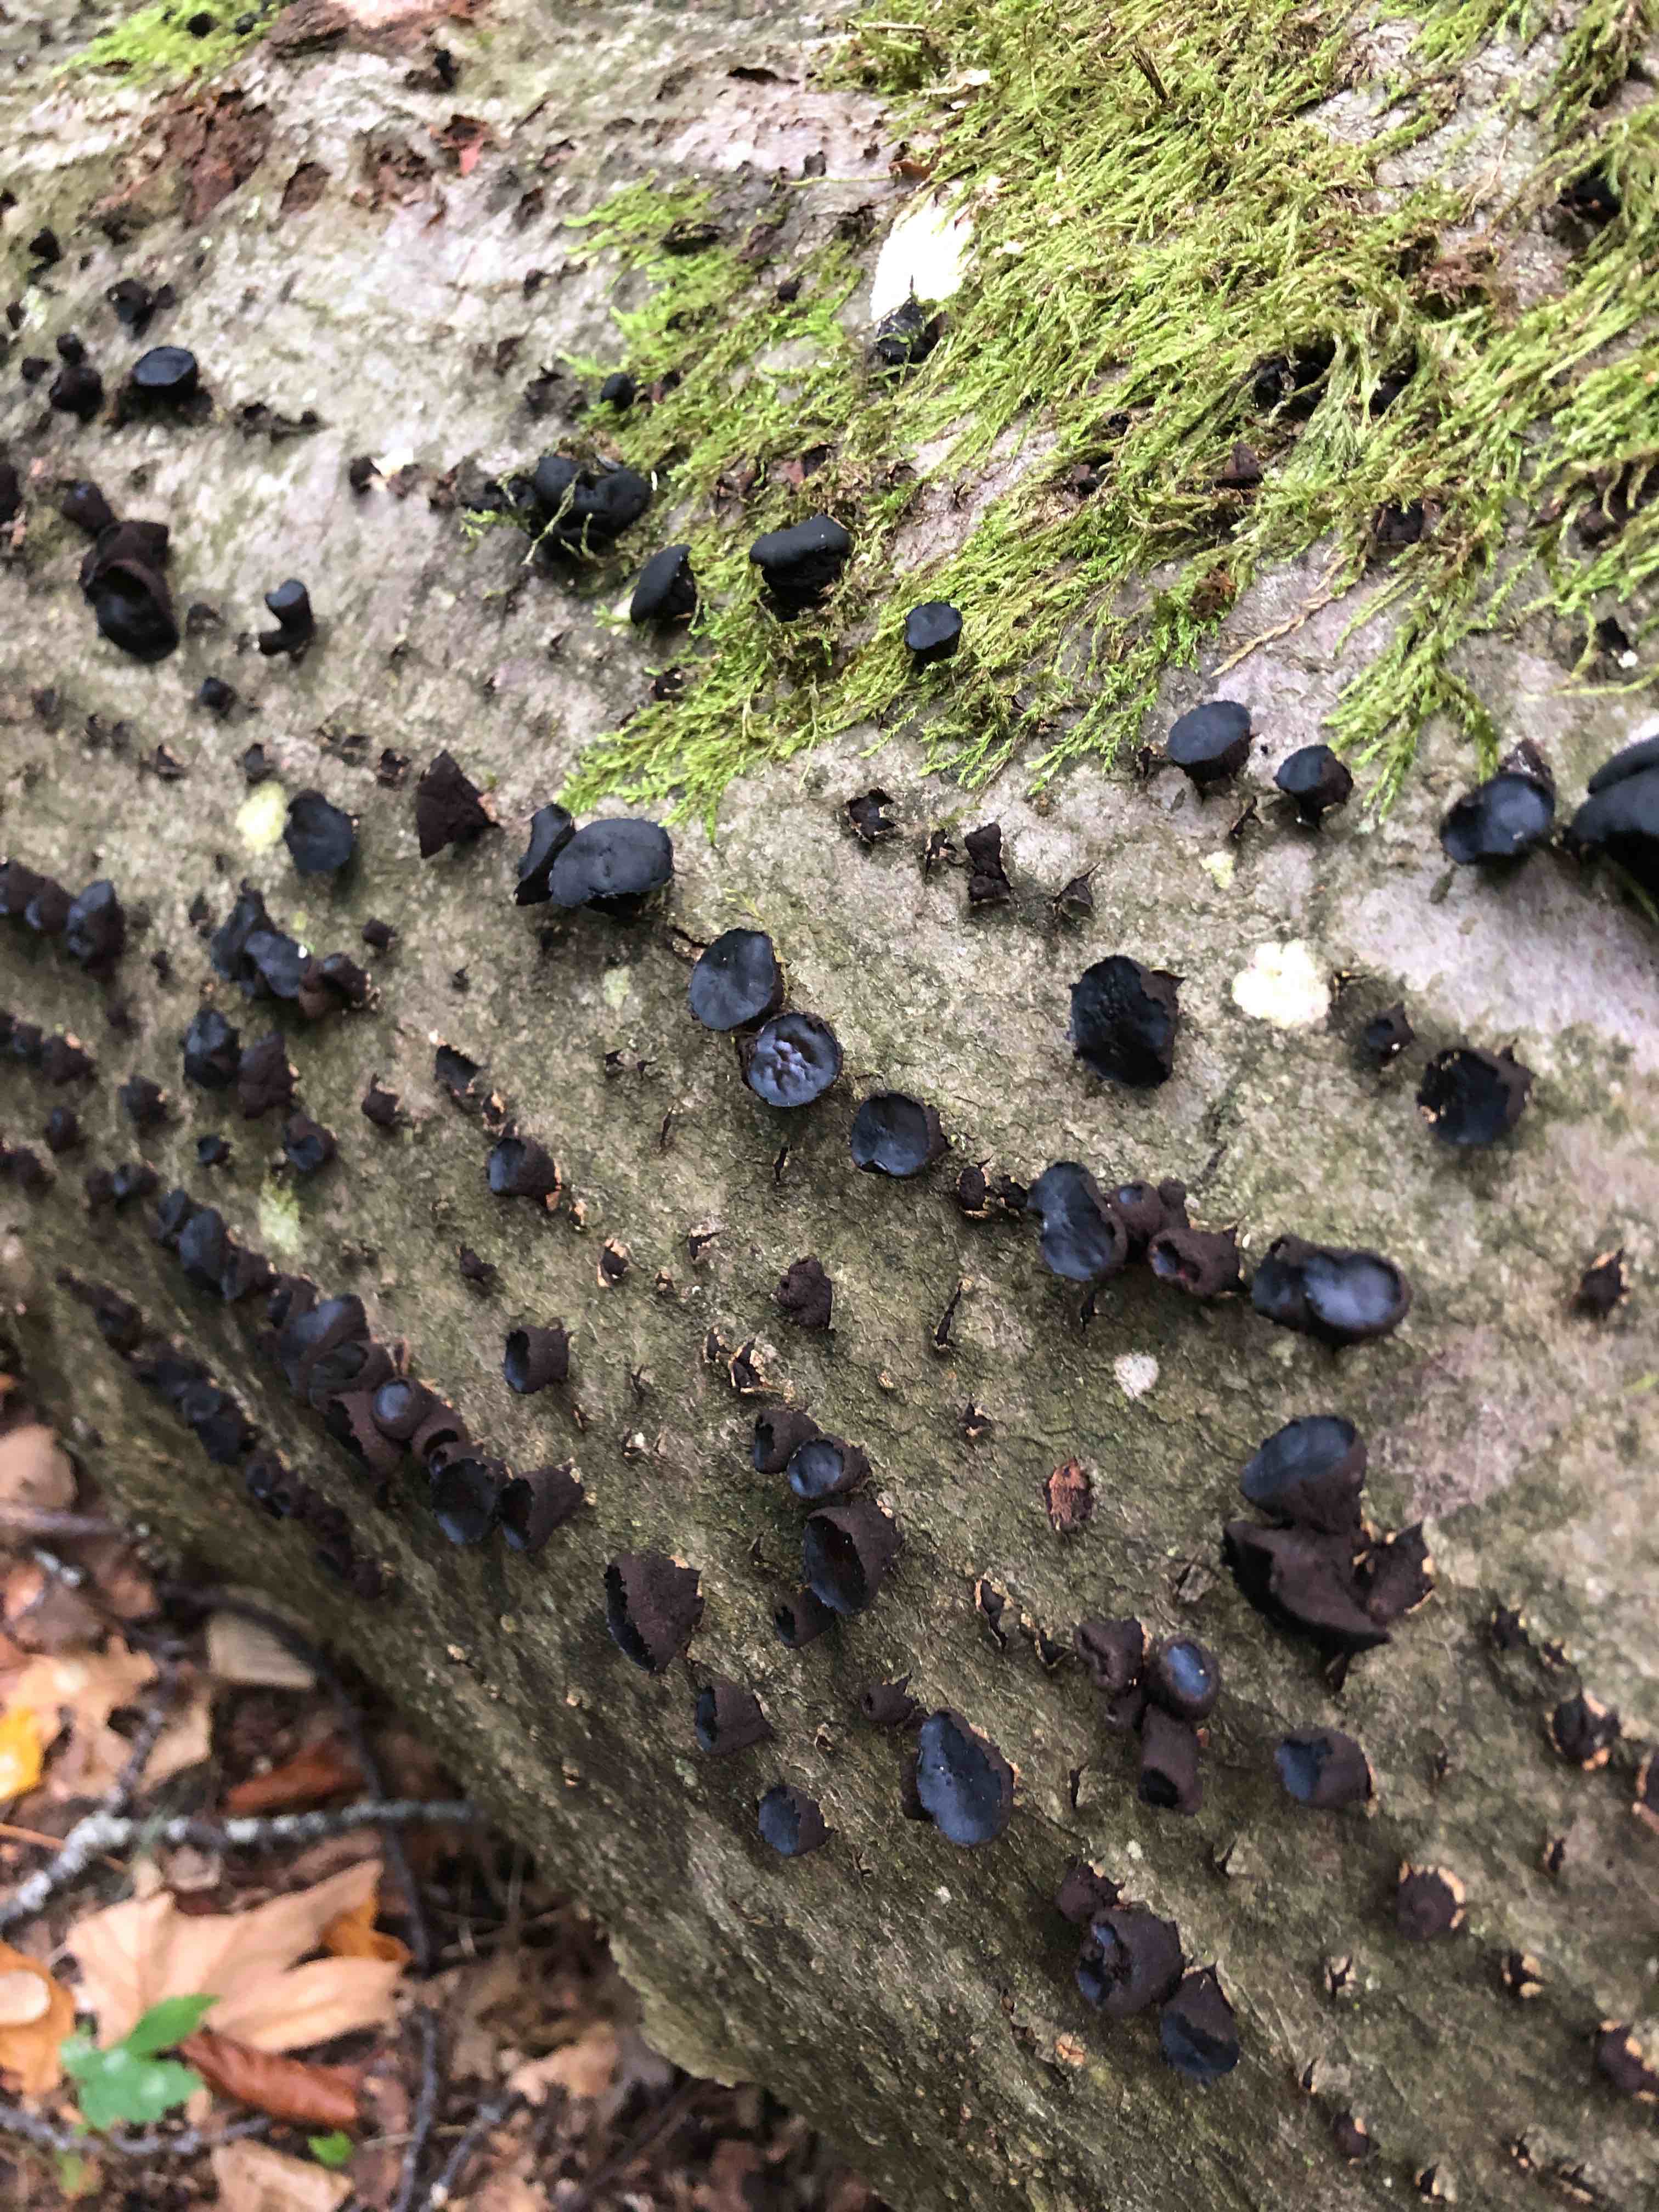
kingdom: Fungi
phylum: Ascomycota
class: Leotiomycetes
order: Phacidiales
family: Phacidiaceae
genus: Bulgaria
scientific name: Bulgaria inquinans
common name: afsmittende topsvamp
